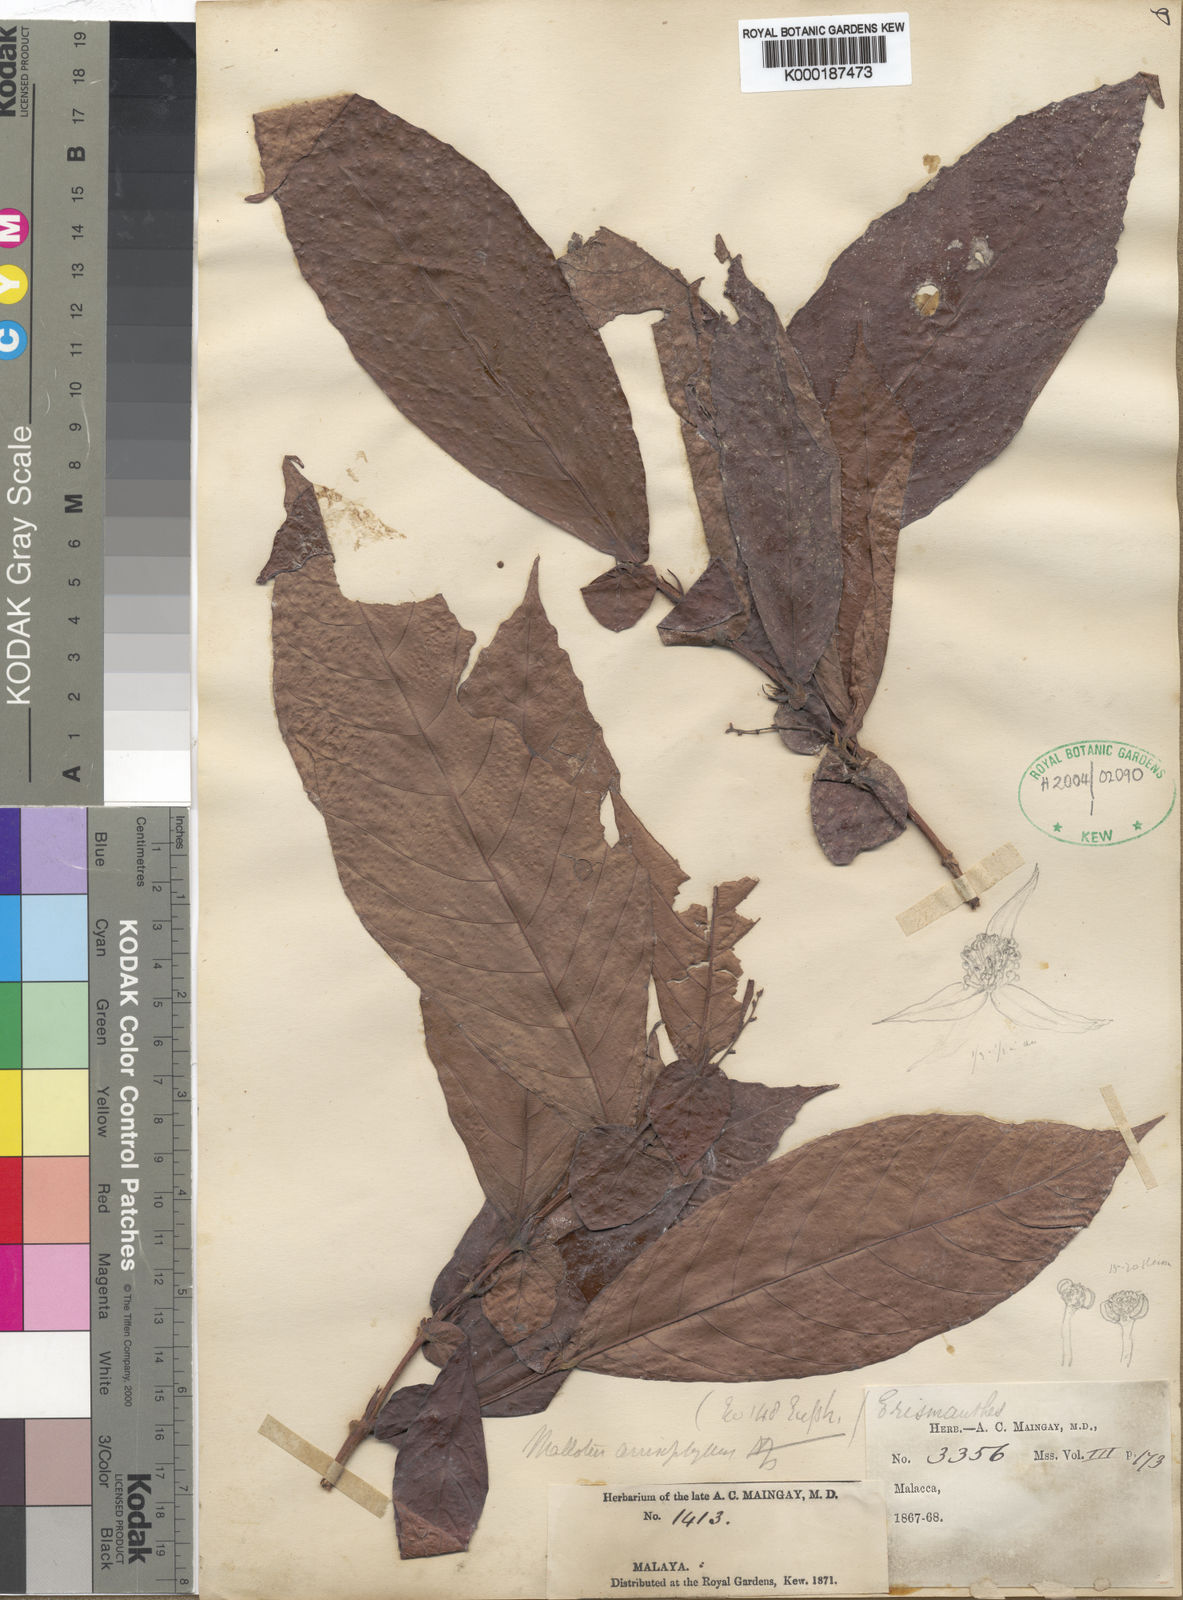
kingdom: Plantae
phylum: Tracheophyta
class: Magnoliopsida
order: Malpighiales
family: Euphorbiaceae
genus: Mallotus
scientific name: Mallotus miquelianus
